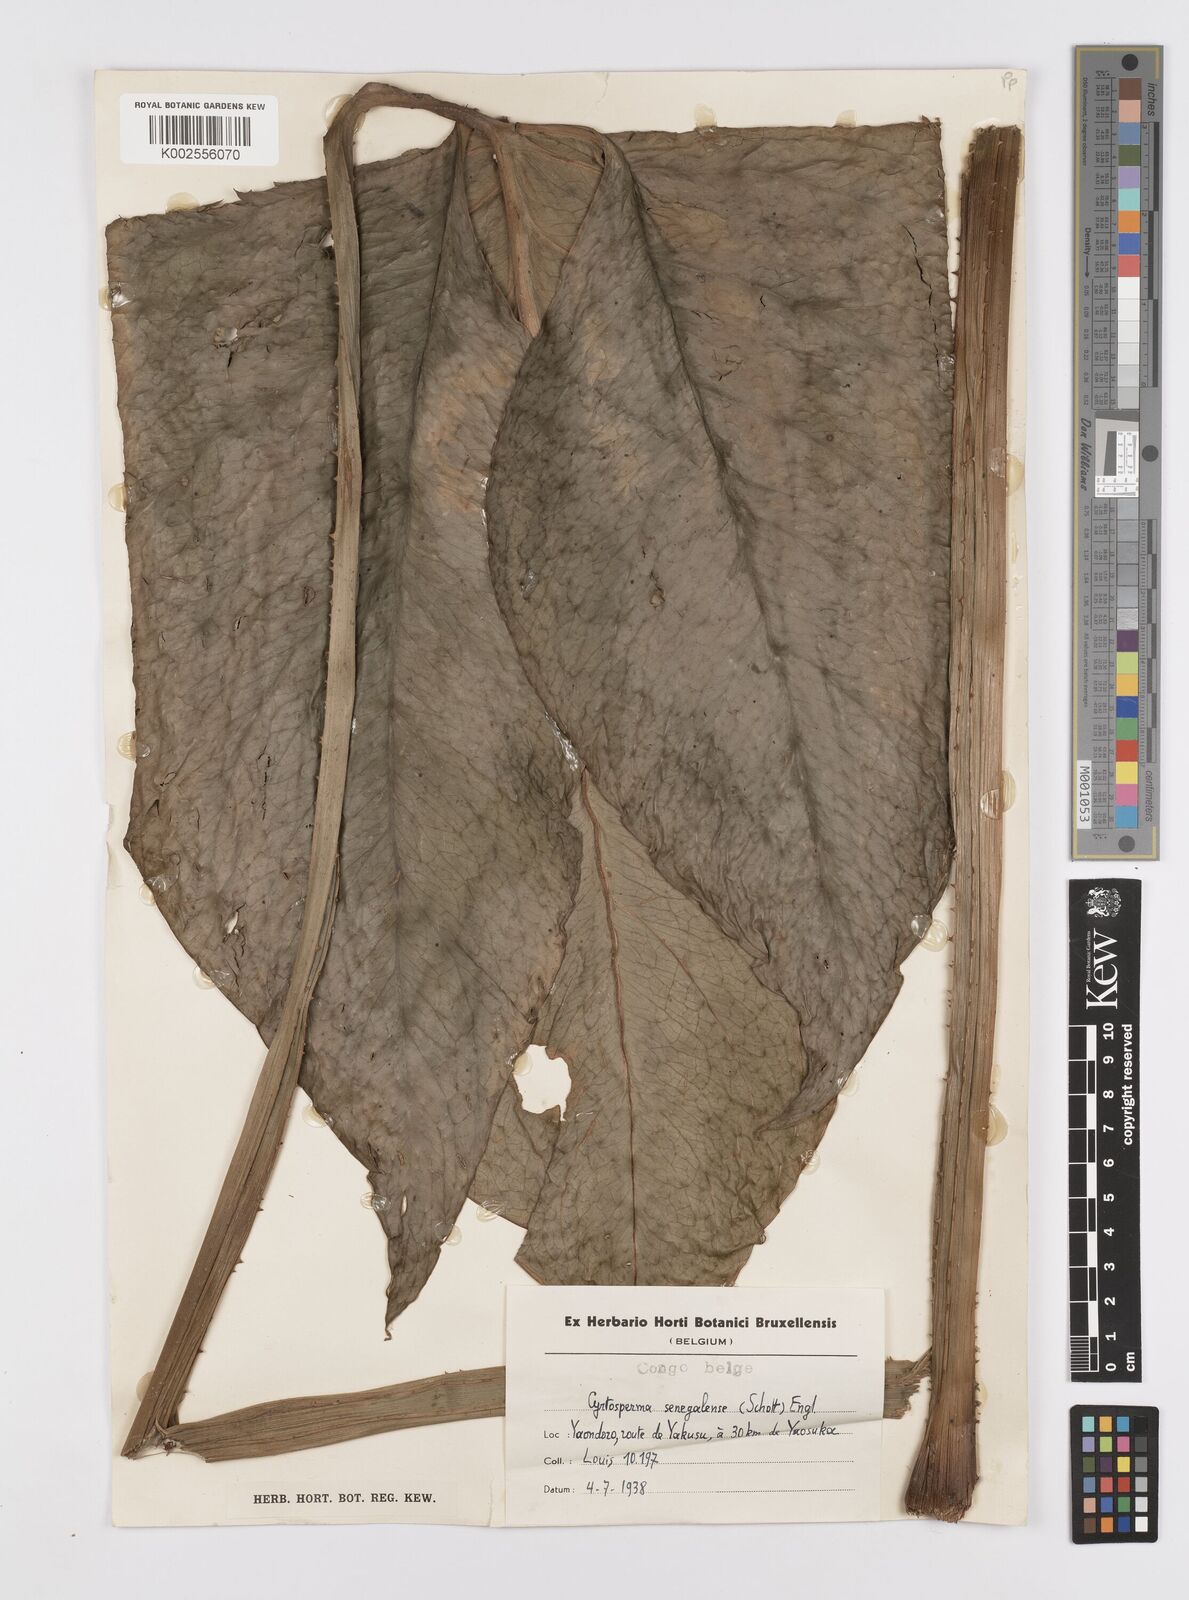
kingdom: Plantae
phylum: Tracheophyta
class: Liliopsida
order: Alismatales
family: Araceae
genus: Lasimorpha
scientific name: Lasimorpha
